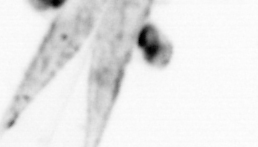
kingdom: Animalia
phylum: Chaetognatha
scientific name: Chaetognatha
